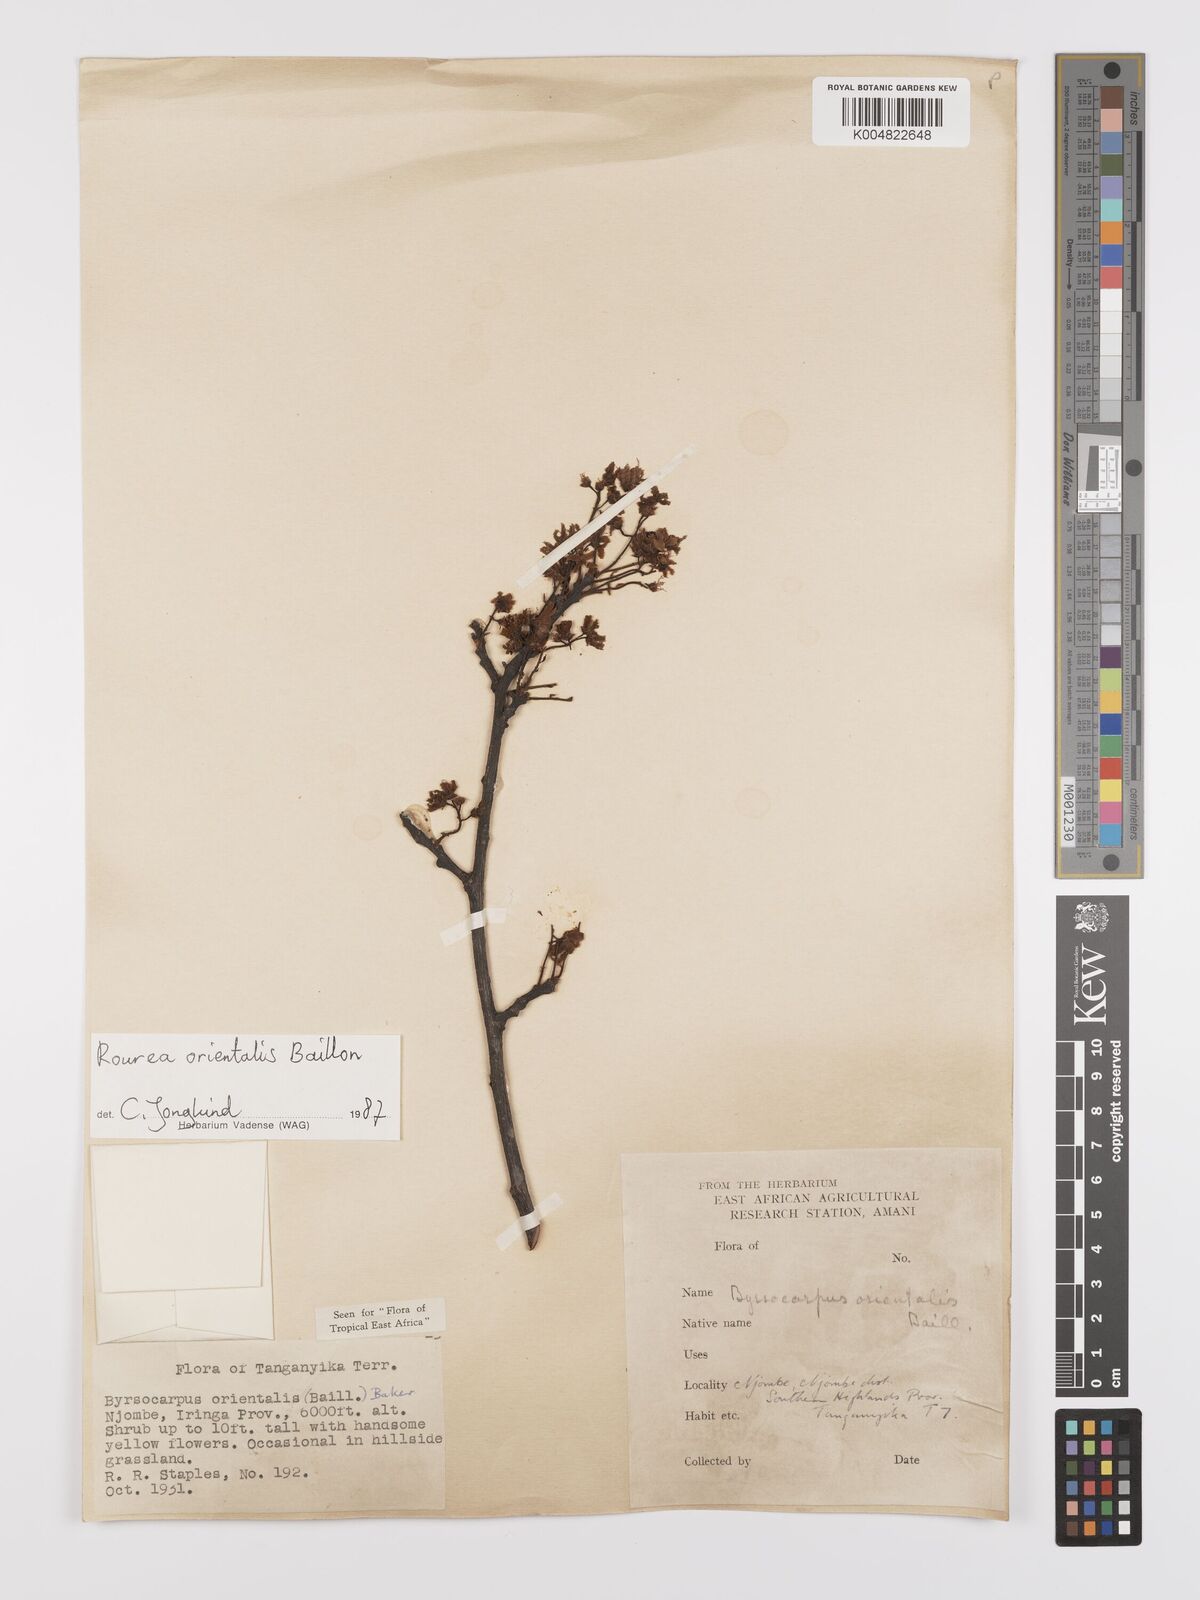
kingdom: Plantae
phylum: Tracheophyta
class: Magnoliopsida
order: Oxalidales
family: Connaraceae
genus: Rourea
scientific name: Rourea orientalis
